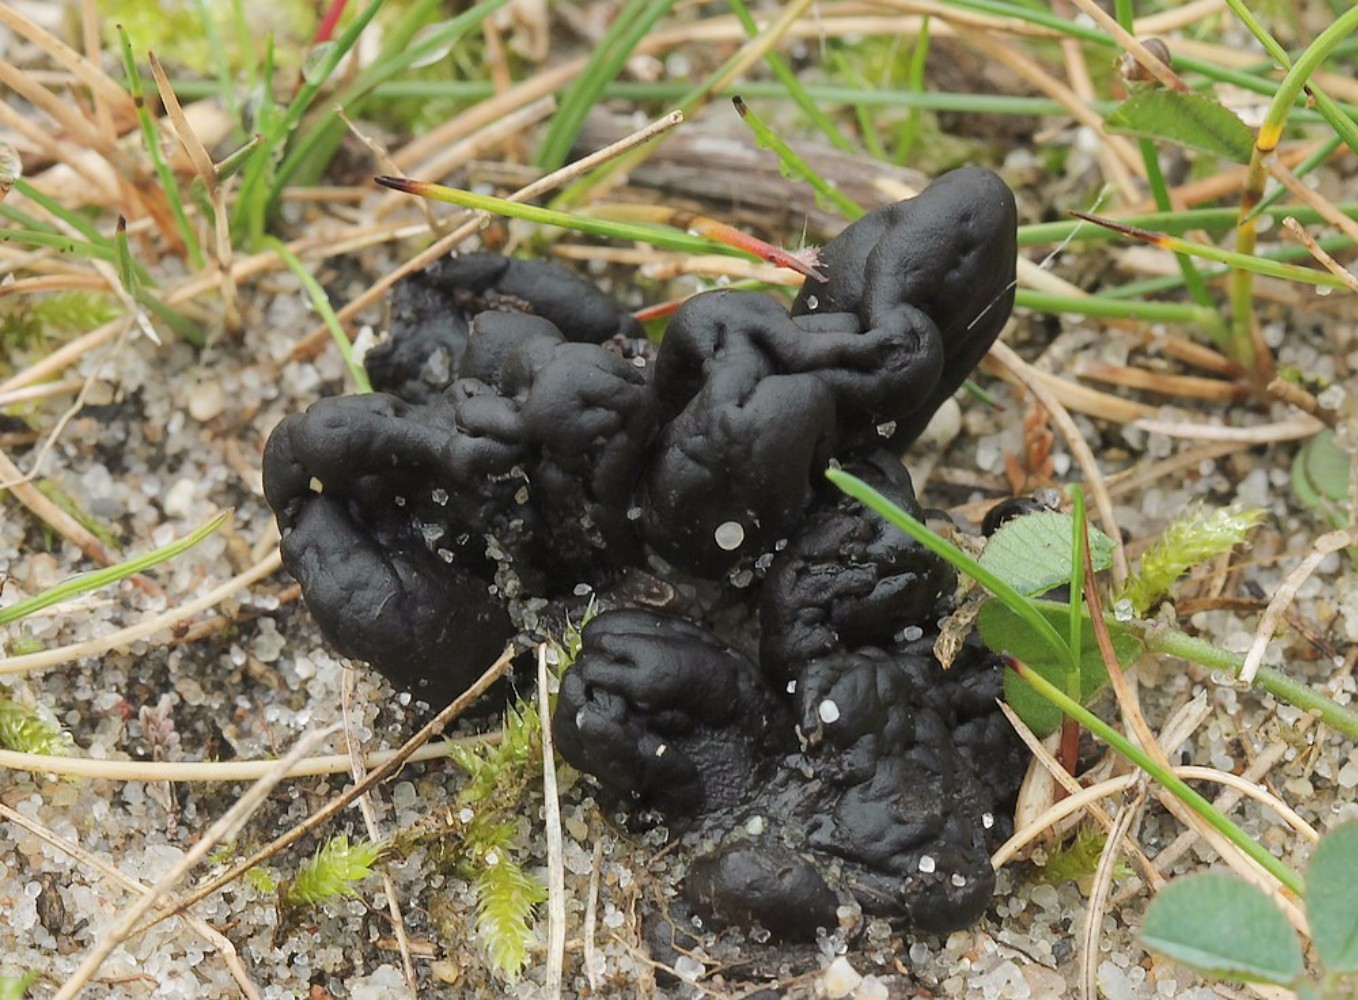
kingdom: Fungi
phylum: Ascomycota
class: Geoglossomycetes
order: Geoglossales
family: Geoglossaceae
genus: Sabuloglossum
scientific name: Sabuloglossum arenarium
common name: klit-jordtunge
